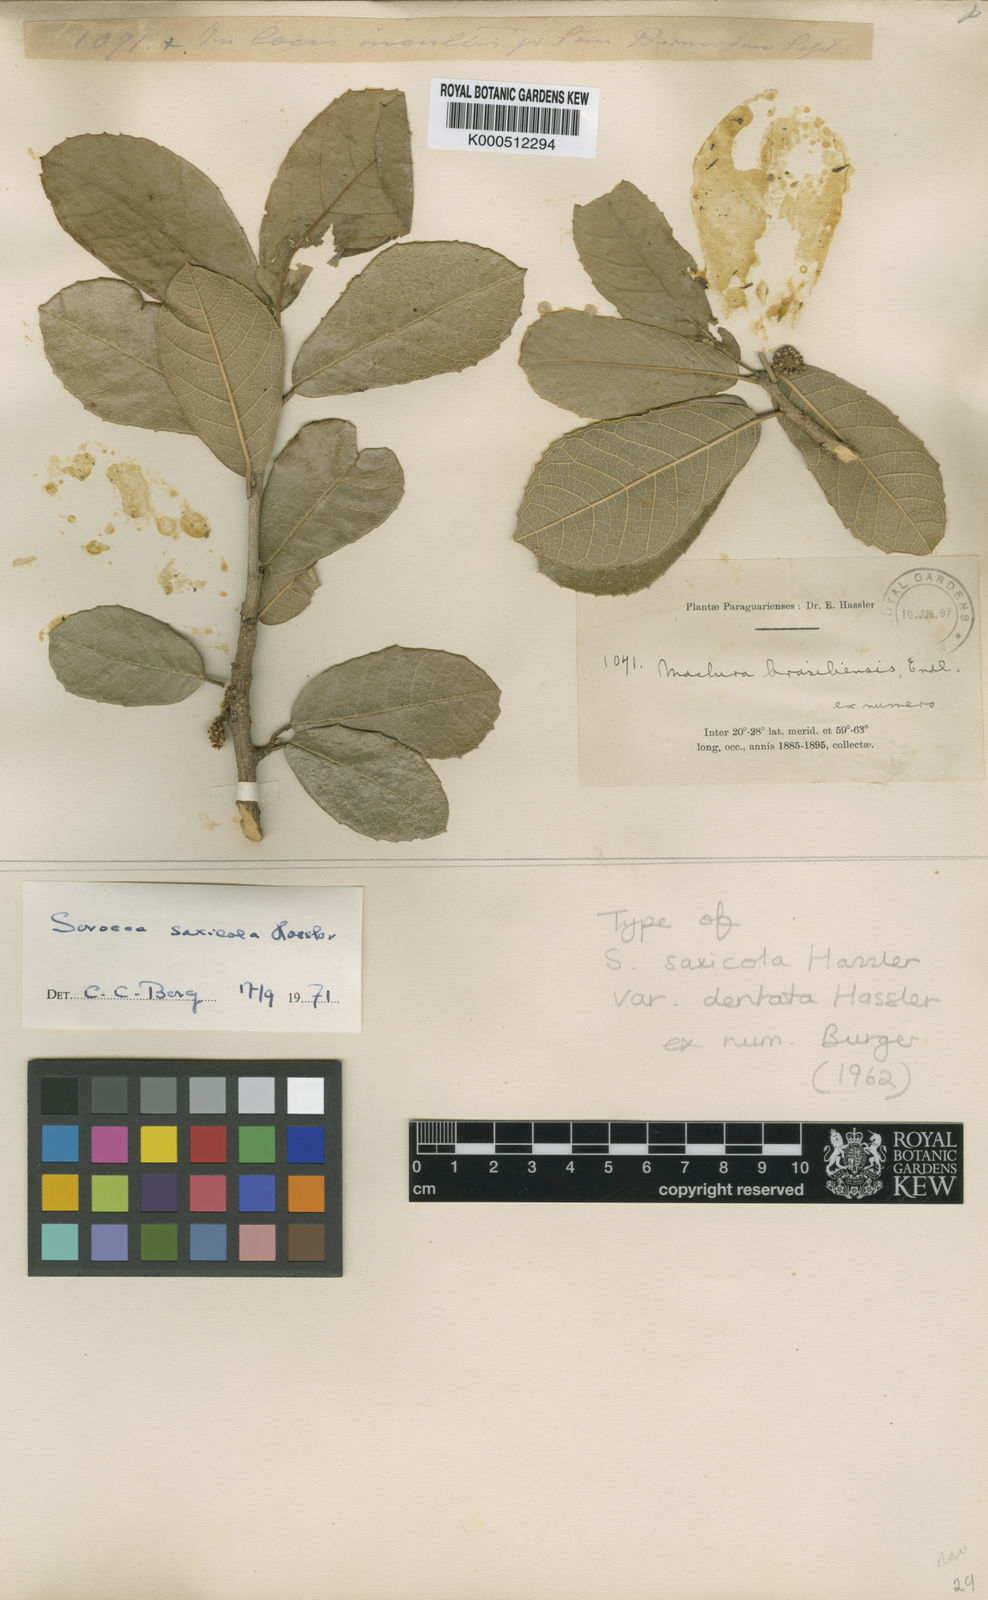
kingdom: Plantae
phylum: Tracheophyta
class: Magnoliopsida
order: Rosales
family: Moraceae
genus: Sorocea
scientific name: Sorocea sprucei
